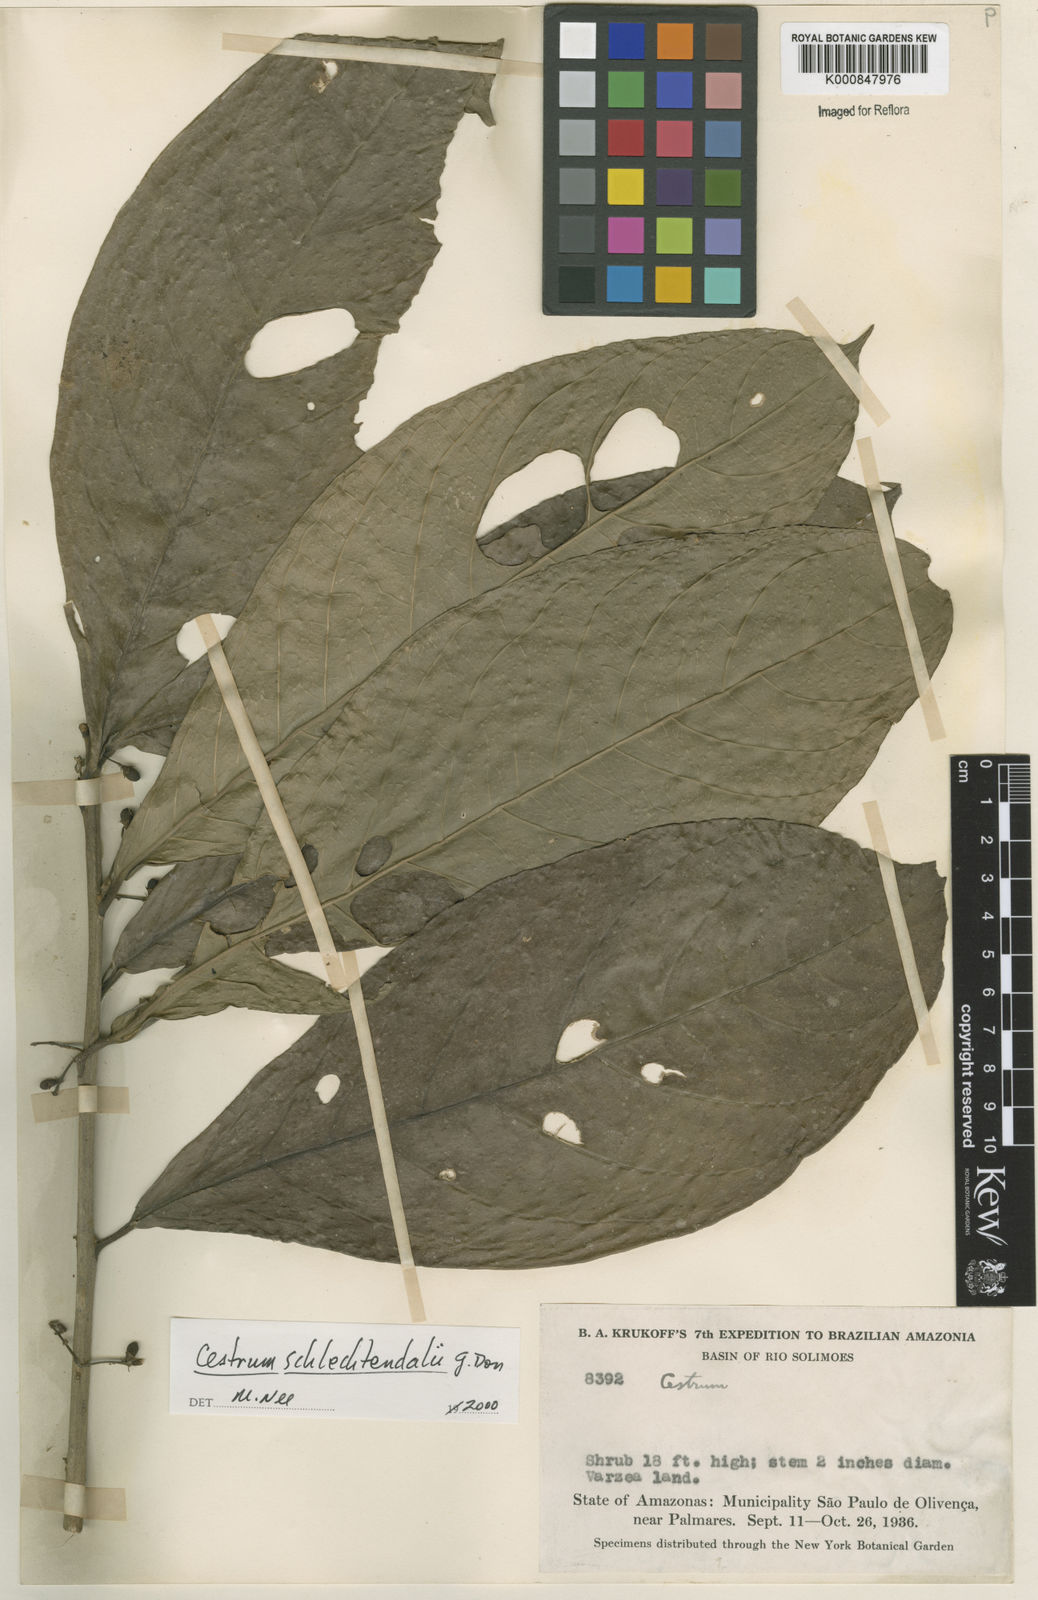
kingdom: Plantae
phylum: Tracheophyta
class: Magnoliopsida
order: Solanales
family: Solanaceae
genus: Cestrum
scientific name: Cestrum schlechtendalii
